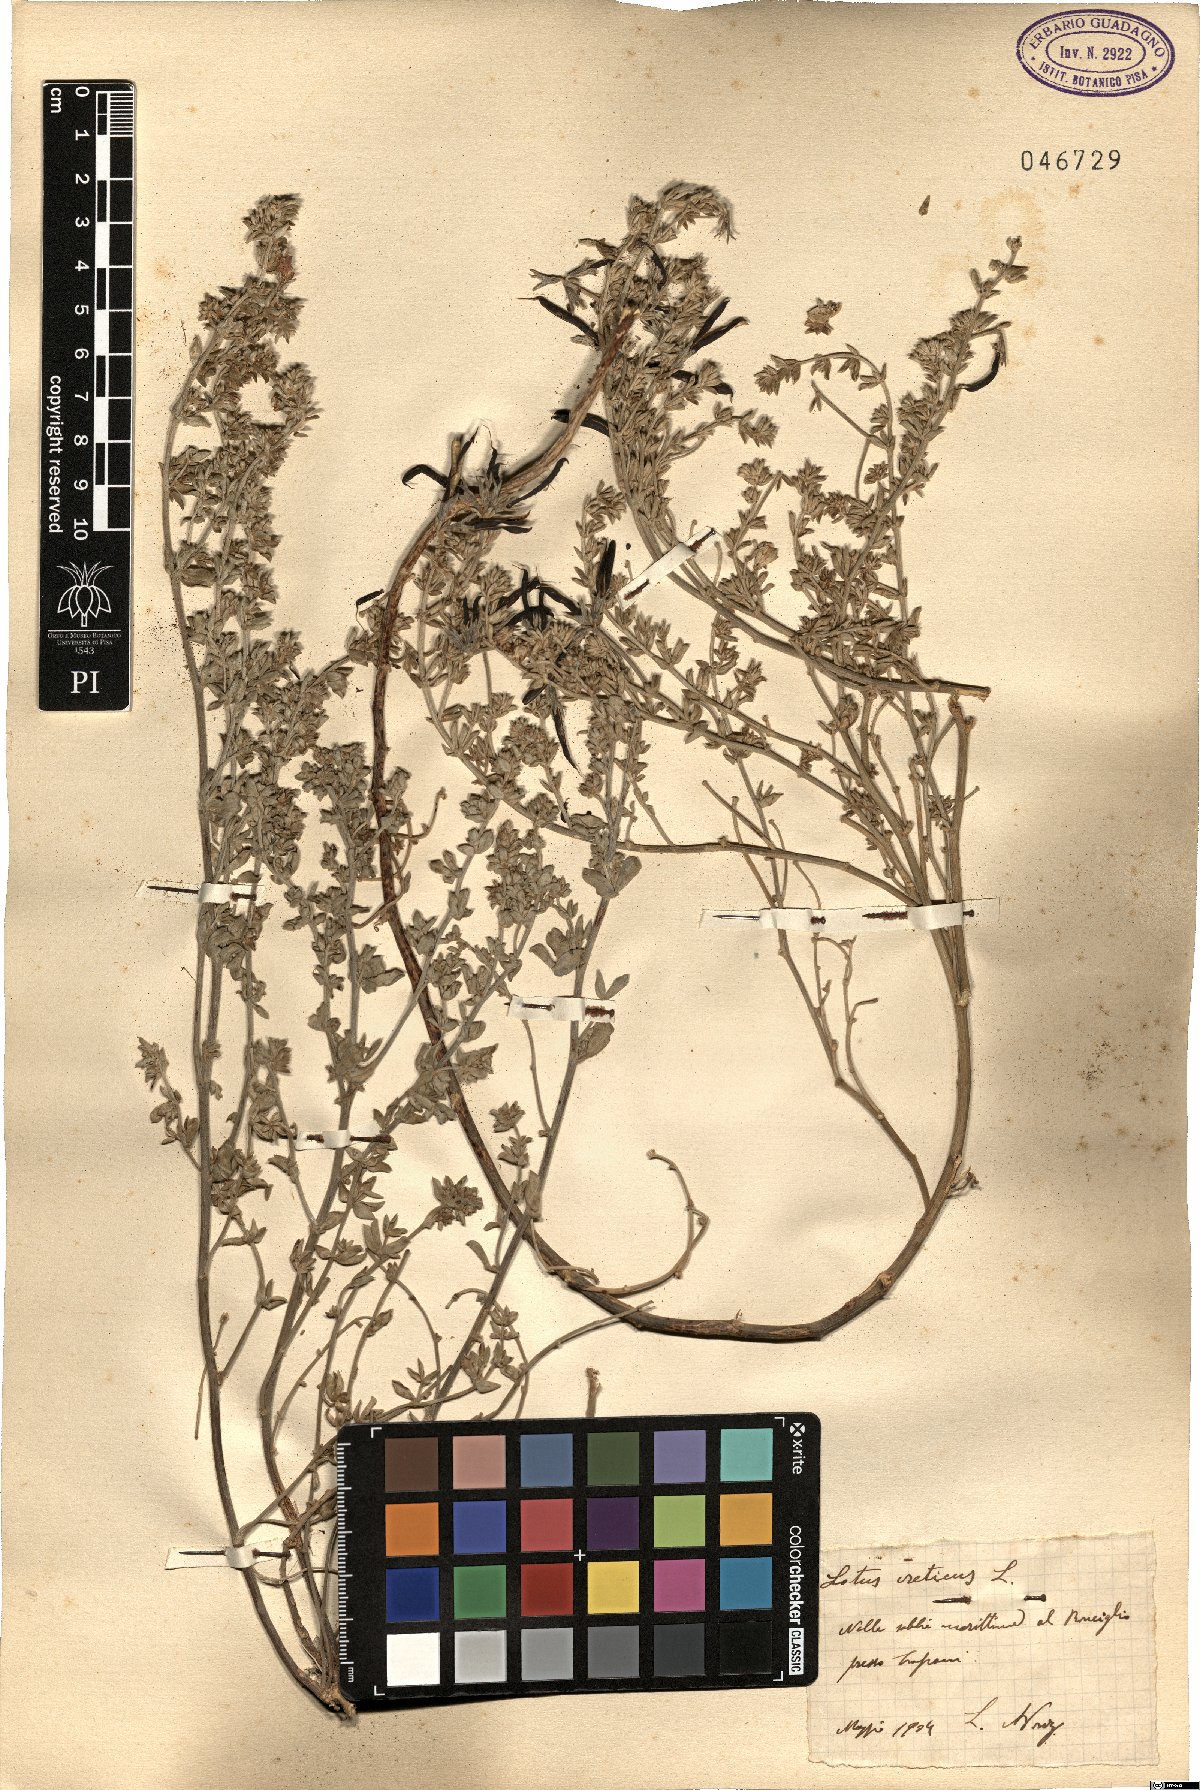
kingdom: Plantae
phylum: Tracheophyta
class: Magnoliopsida
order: Fabales
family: Fabaceae
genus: Lotus
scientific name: Lotus creticus
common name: Cretan bird's-foot trefoil
